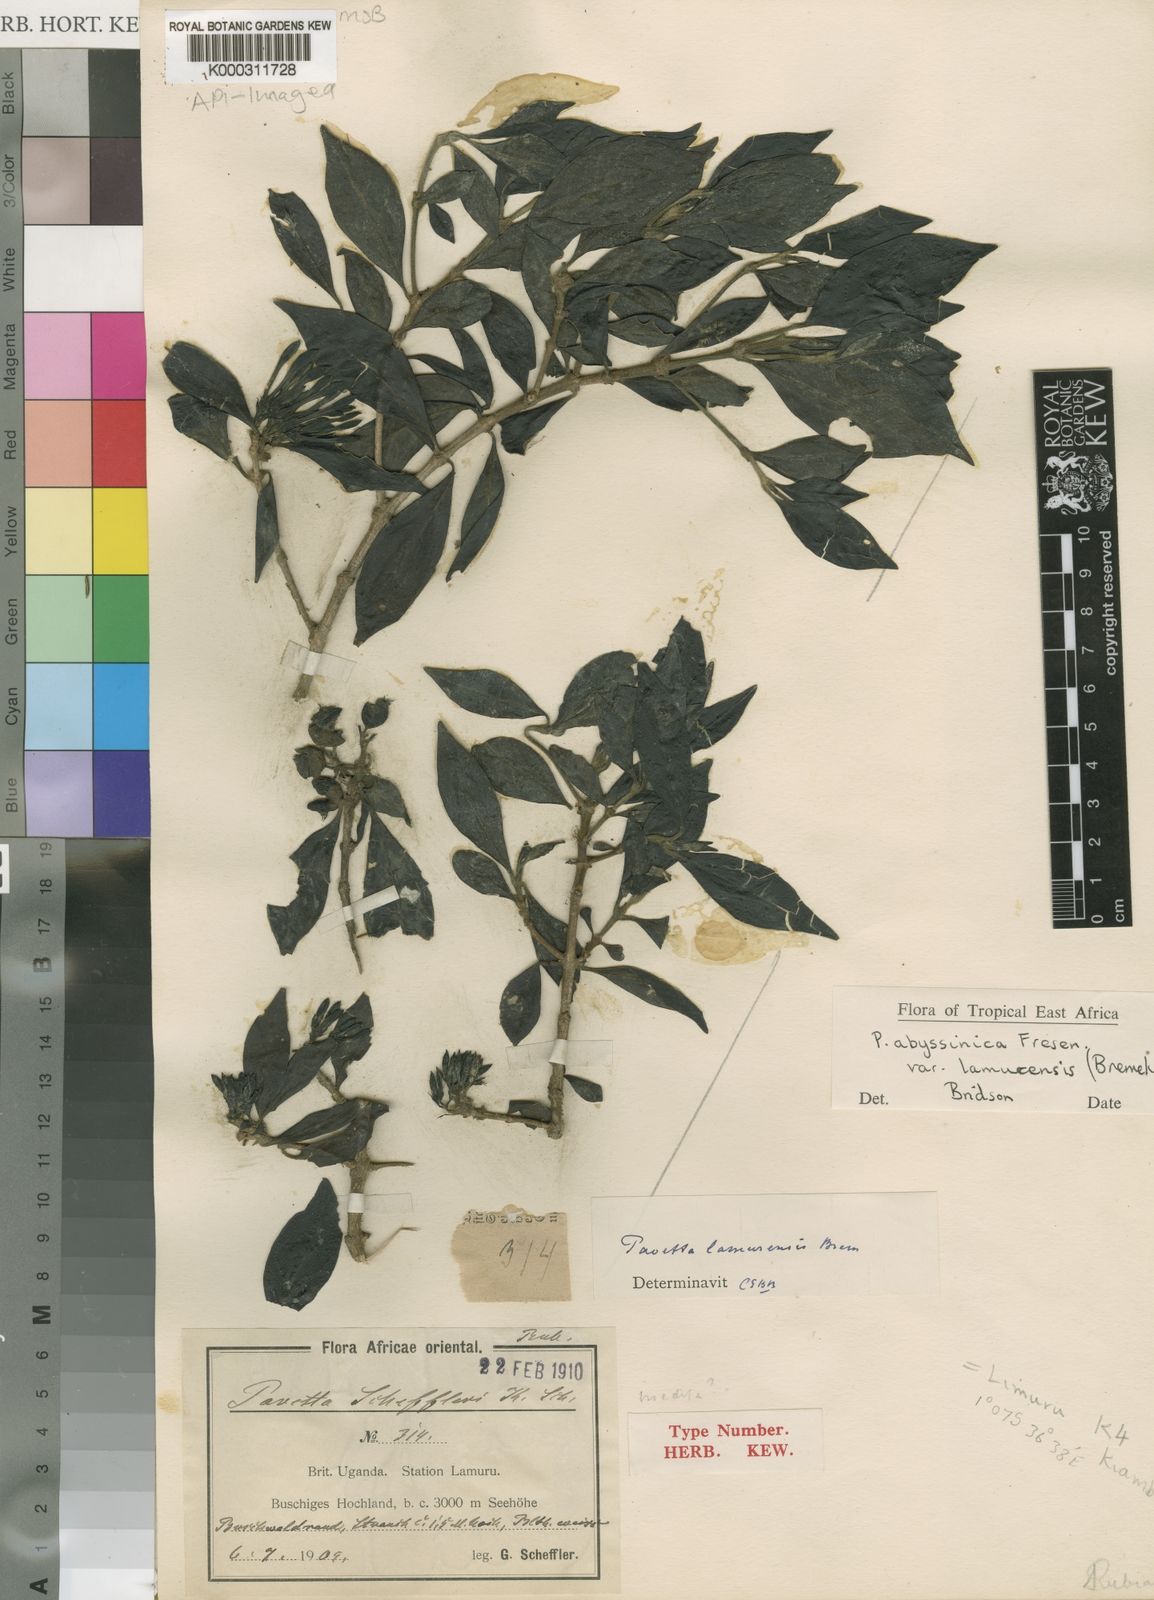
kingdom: Plantae
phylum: Tracheophyta
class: Magnoliopsida
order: Gentianales
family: Rubiaceae
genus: Pavetta
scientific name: Pavetta abyssinica
